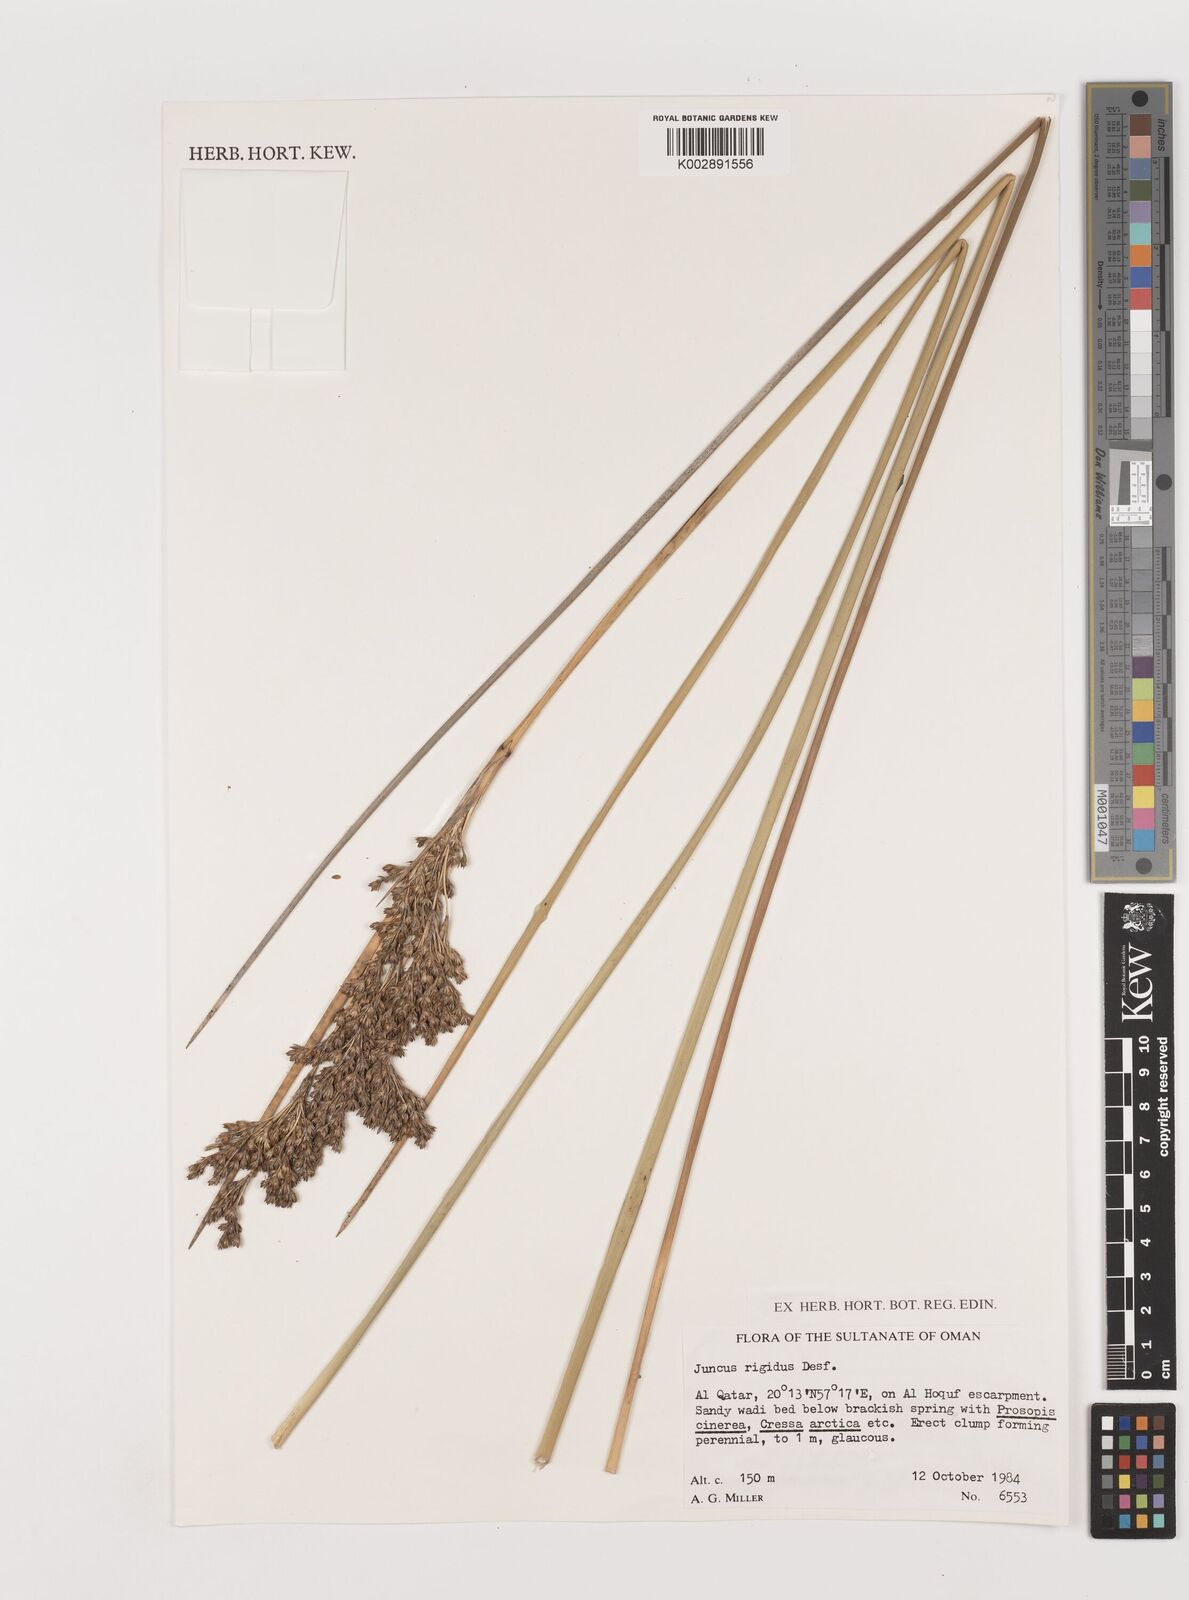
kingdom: Plantae
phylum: Tracheophyta
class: Liliopsida
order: Poales
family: Juncaceae
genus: Juncus
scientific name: Juncus rigidus
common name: Hard sea rush
